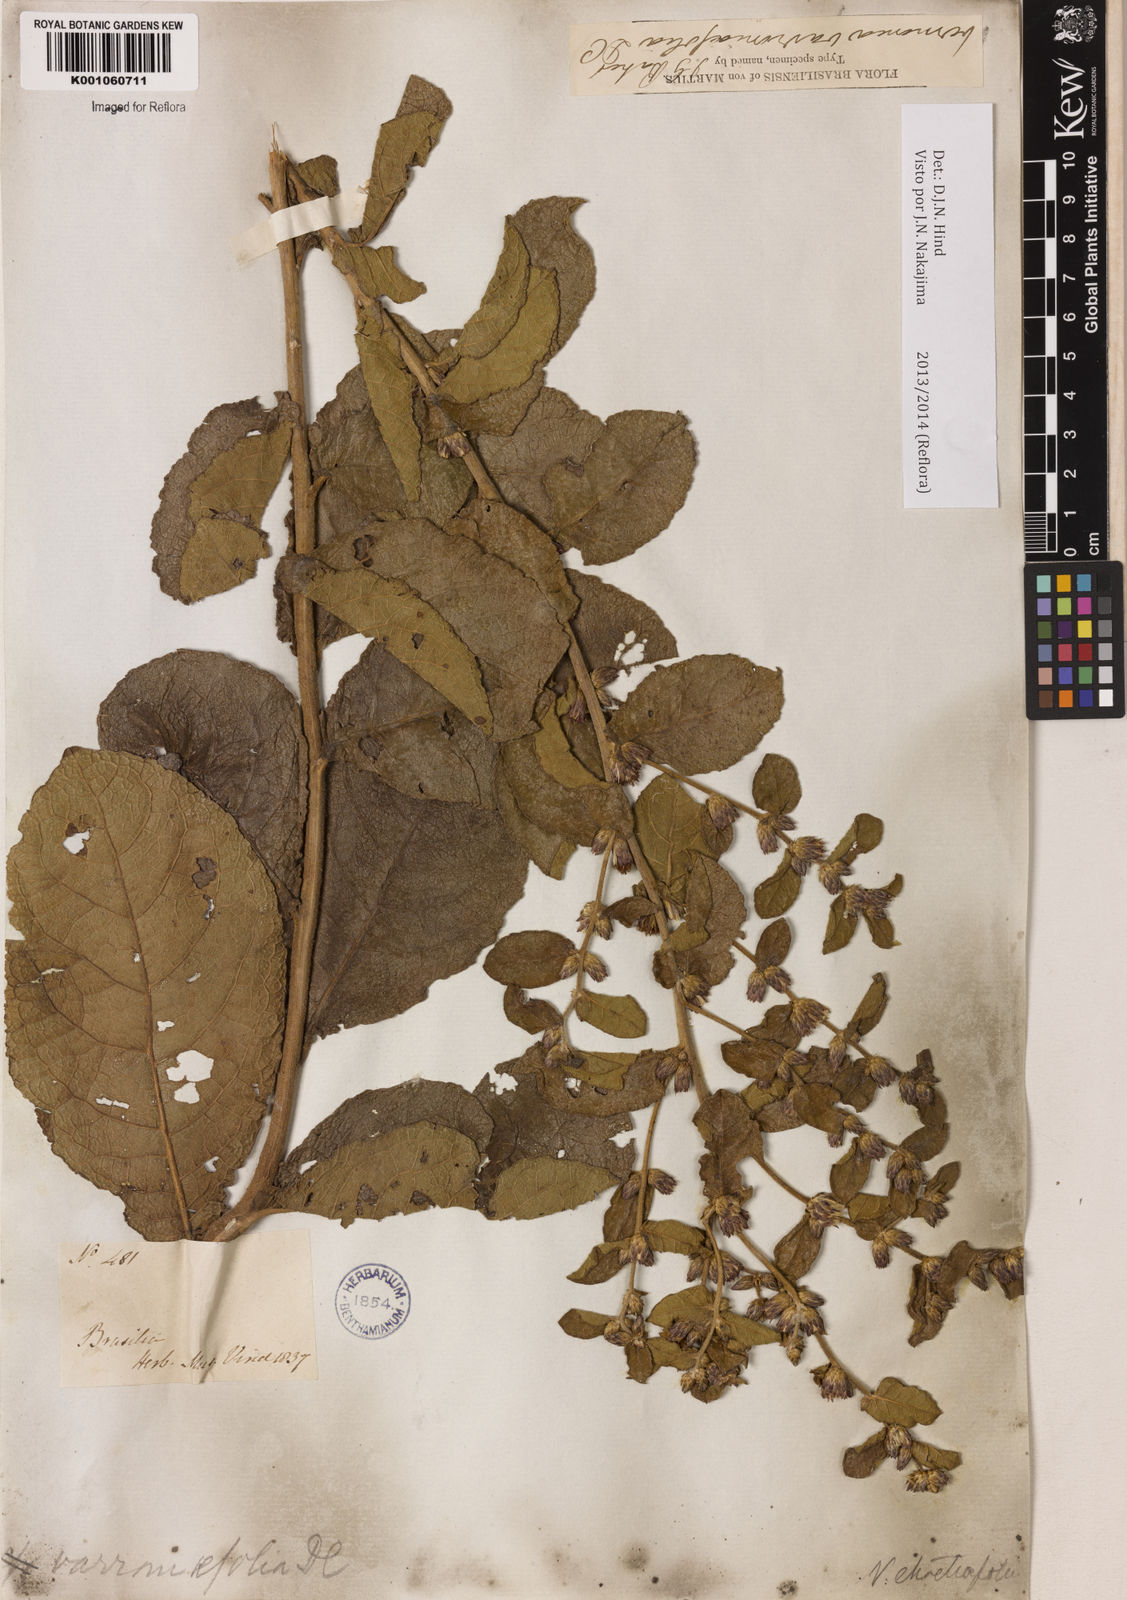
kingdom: Plantae
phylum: Tracheophyta
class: Magnoliopsida
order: Asterales
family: Asteraceae
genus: Lessingianthus
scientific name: Lessingianthus varroniifolius
